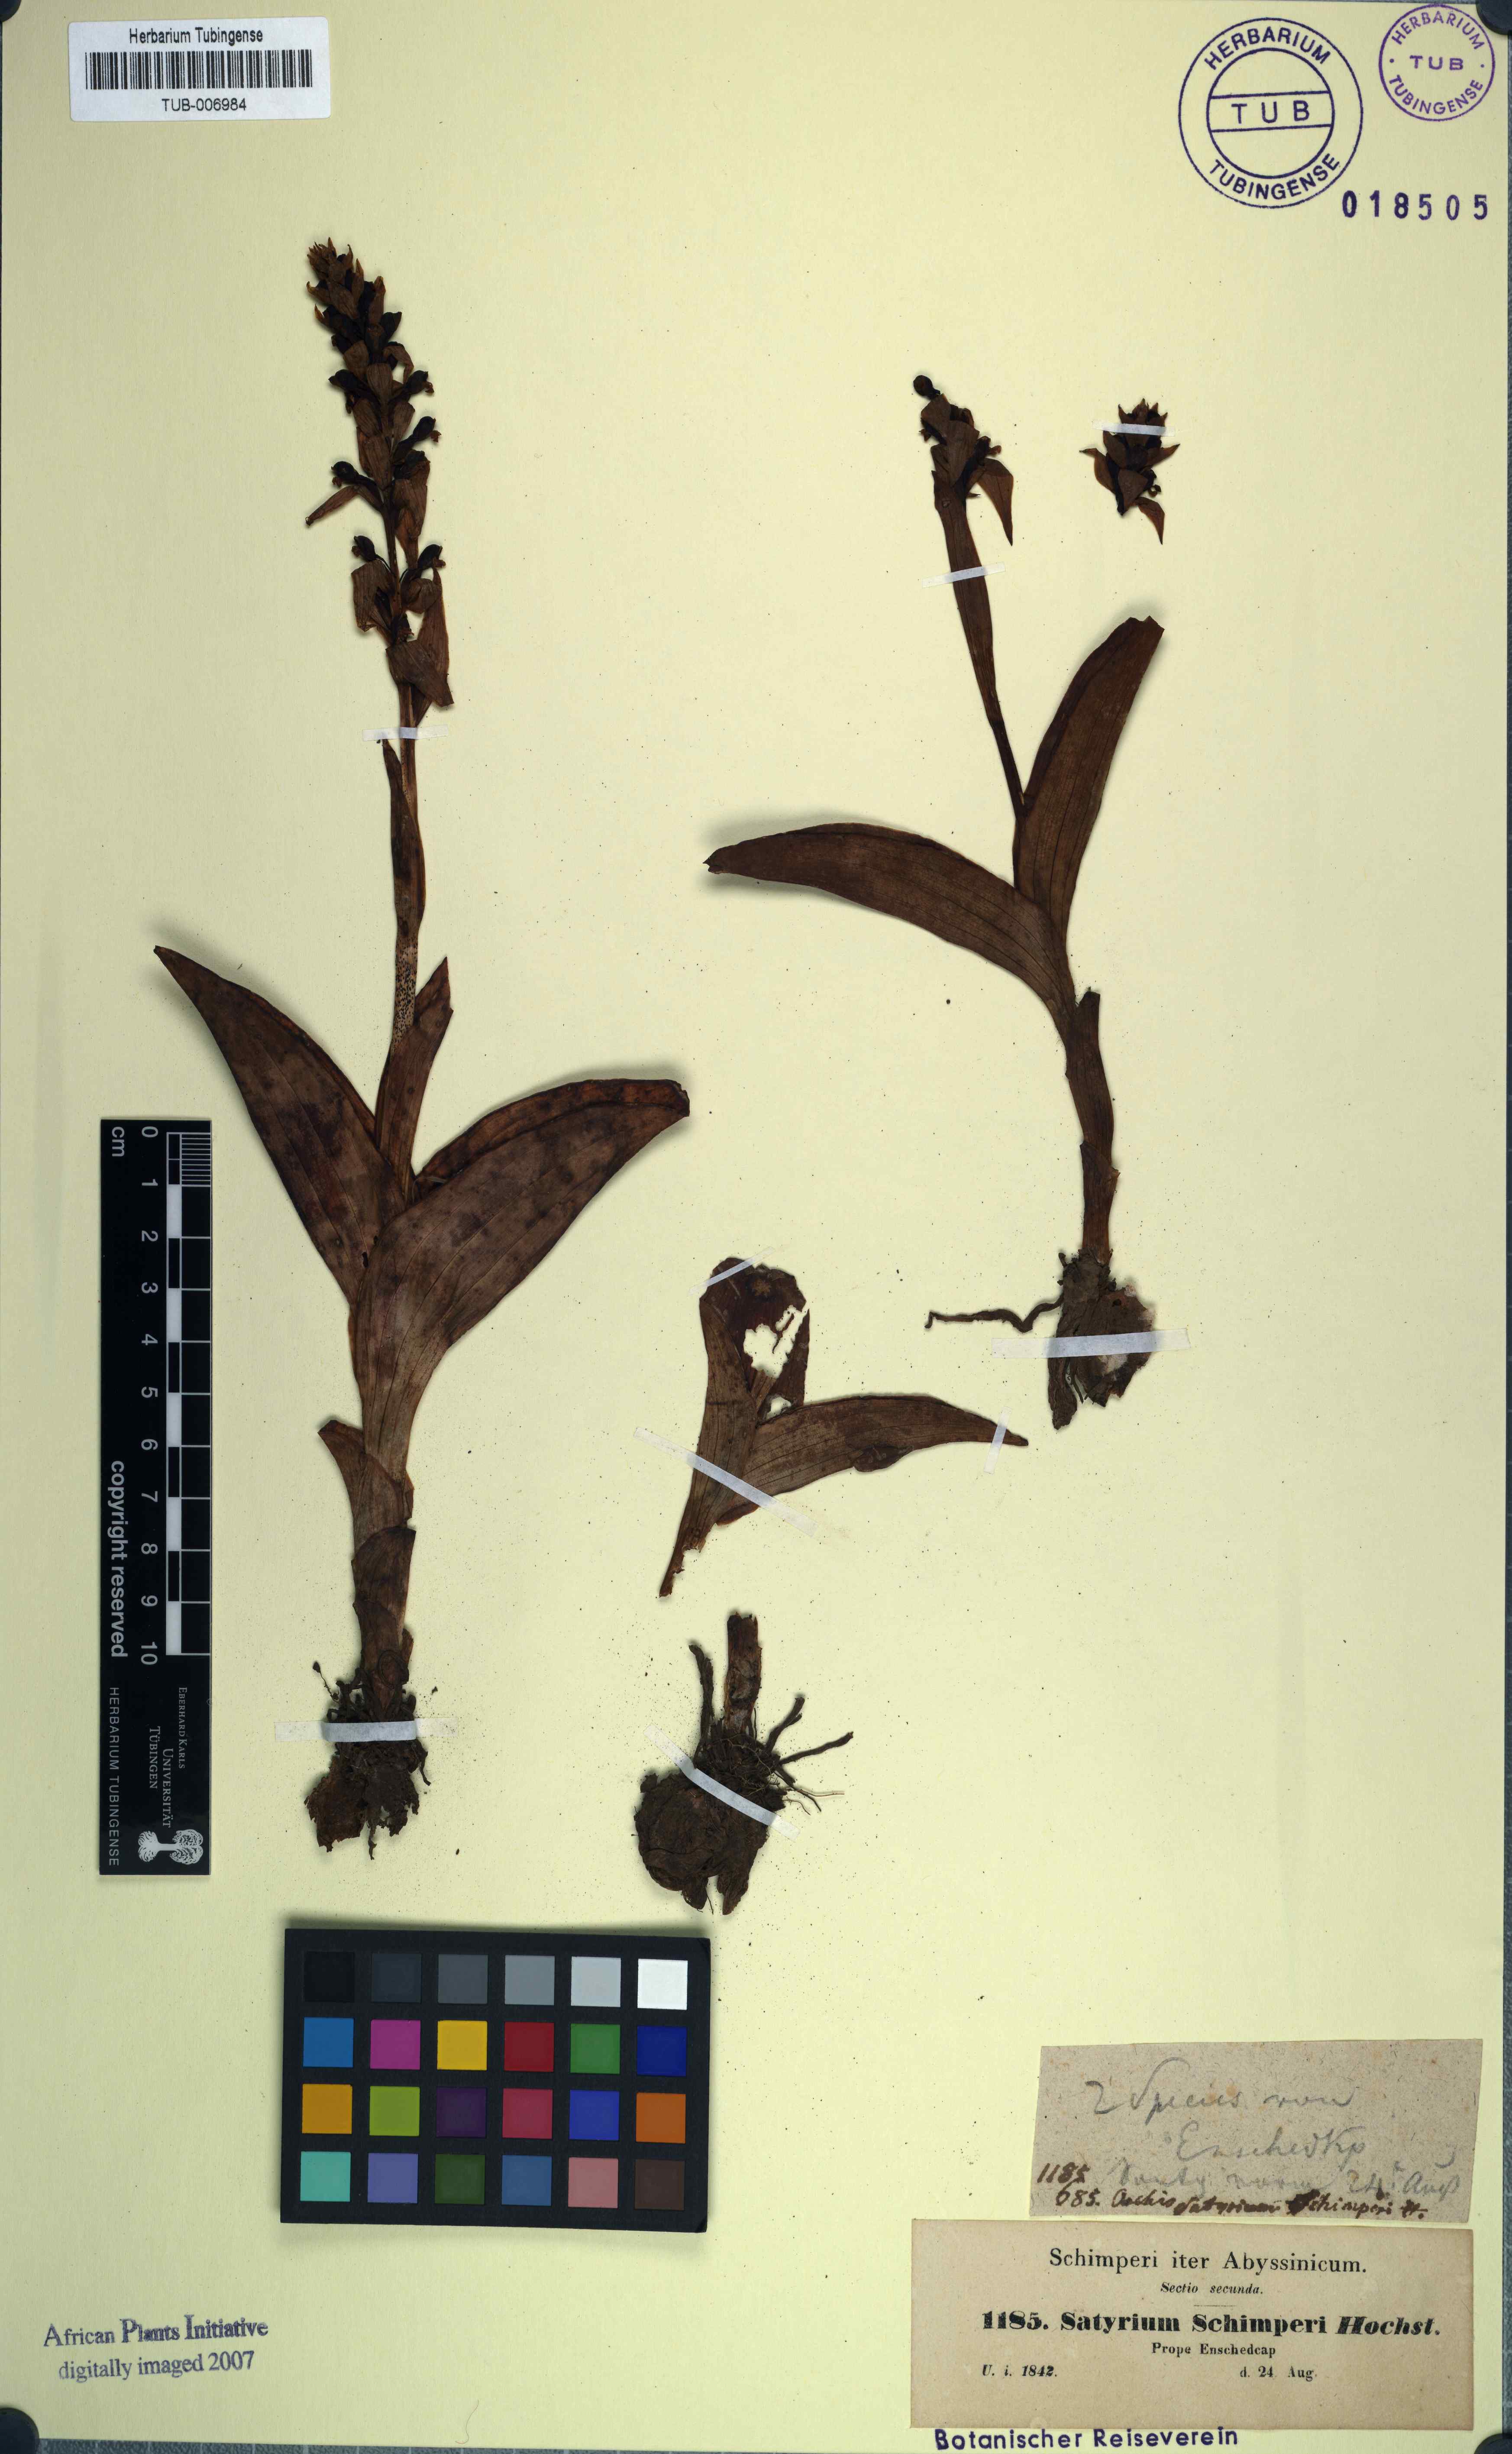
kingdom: Plantae
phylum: Tracheophyta
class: Liliopsida
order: Asparagales
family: Orchidaceae
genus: Satyrium
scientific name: Satyrium schimperi
